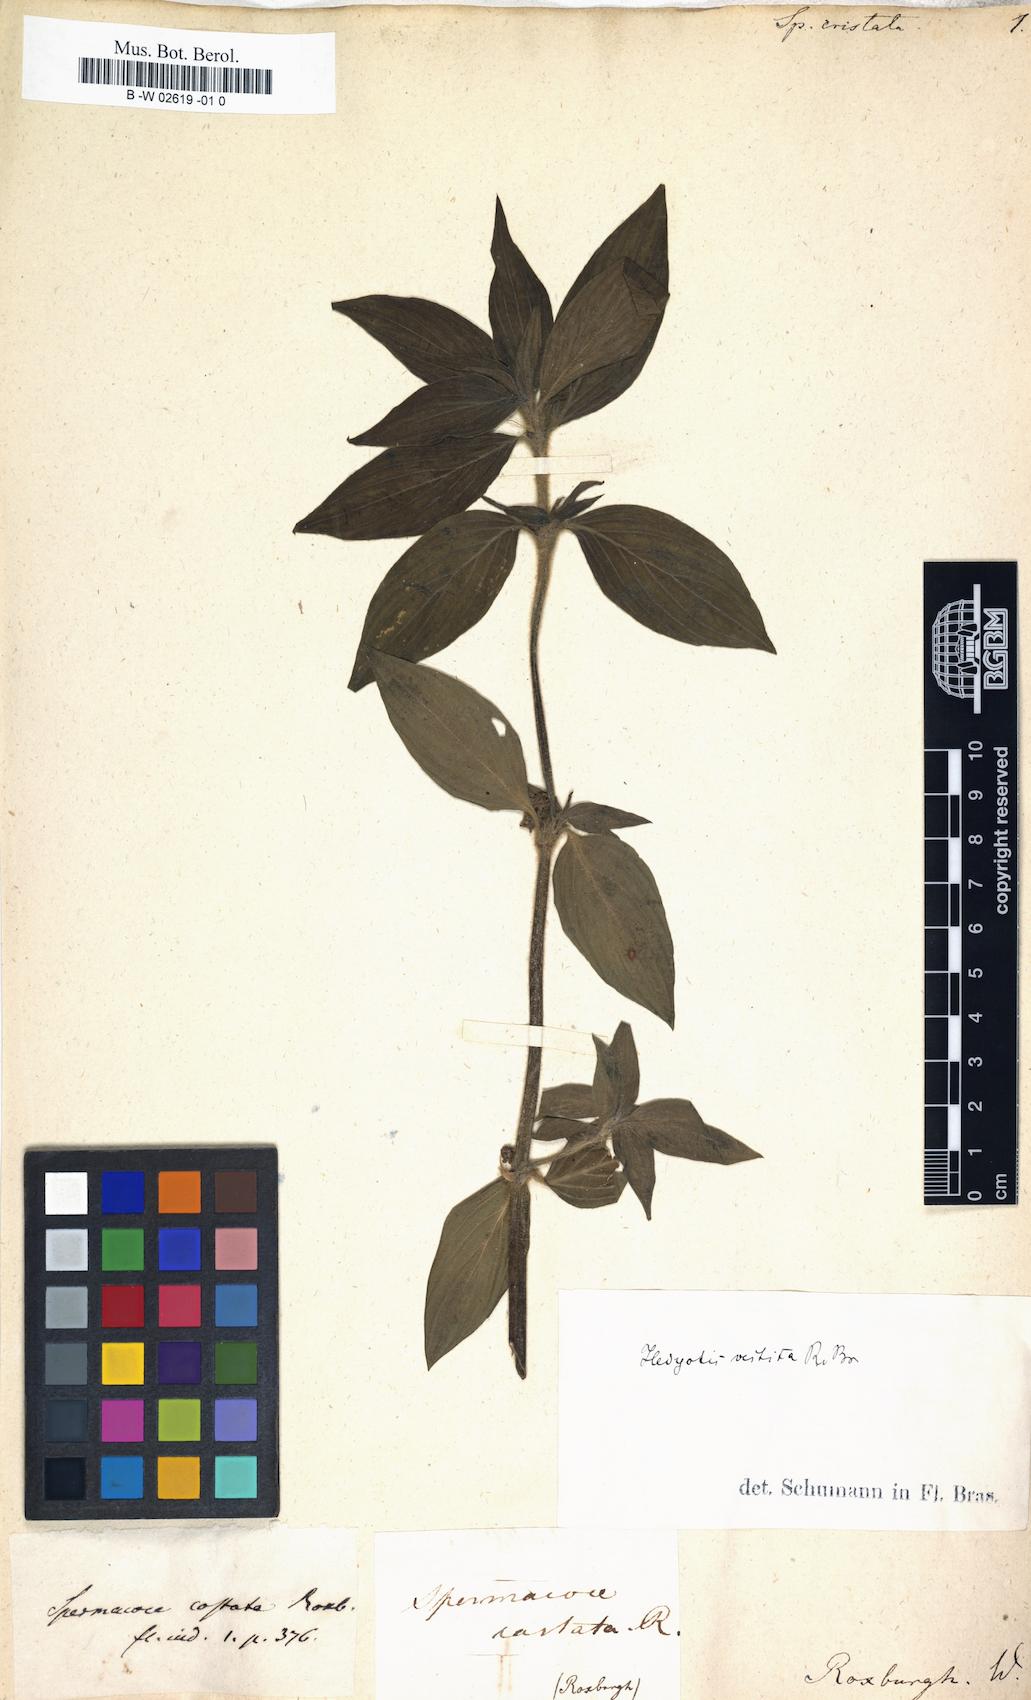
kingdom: Plantae
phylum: Tracheophyta
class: Magnoliopsida
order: Gentianales
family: Rubiaceae
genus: Exallage
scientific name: Exallage cristata
